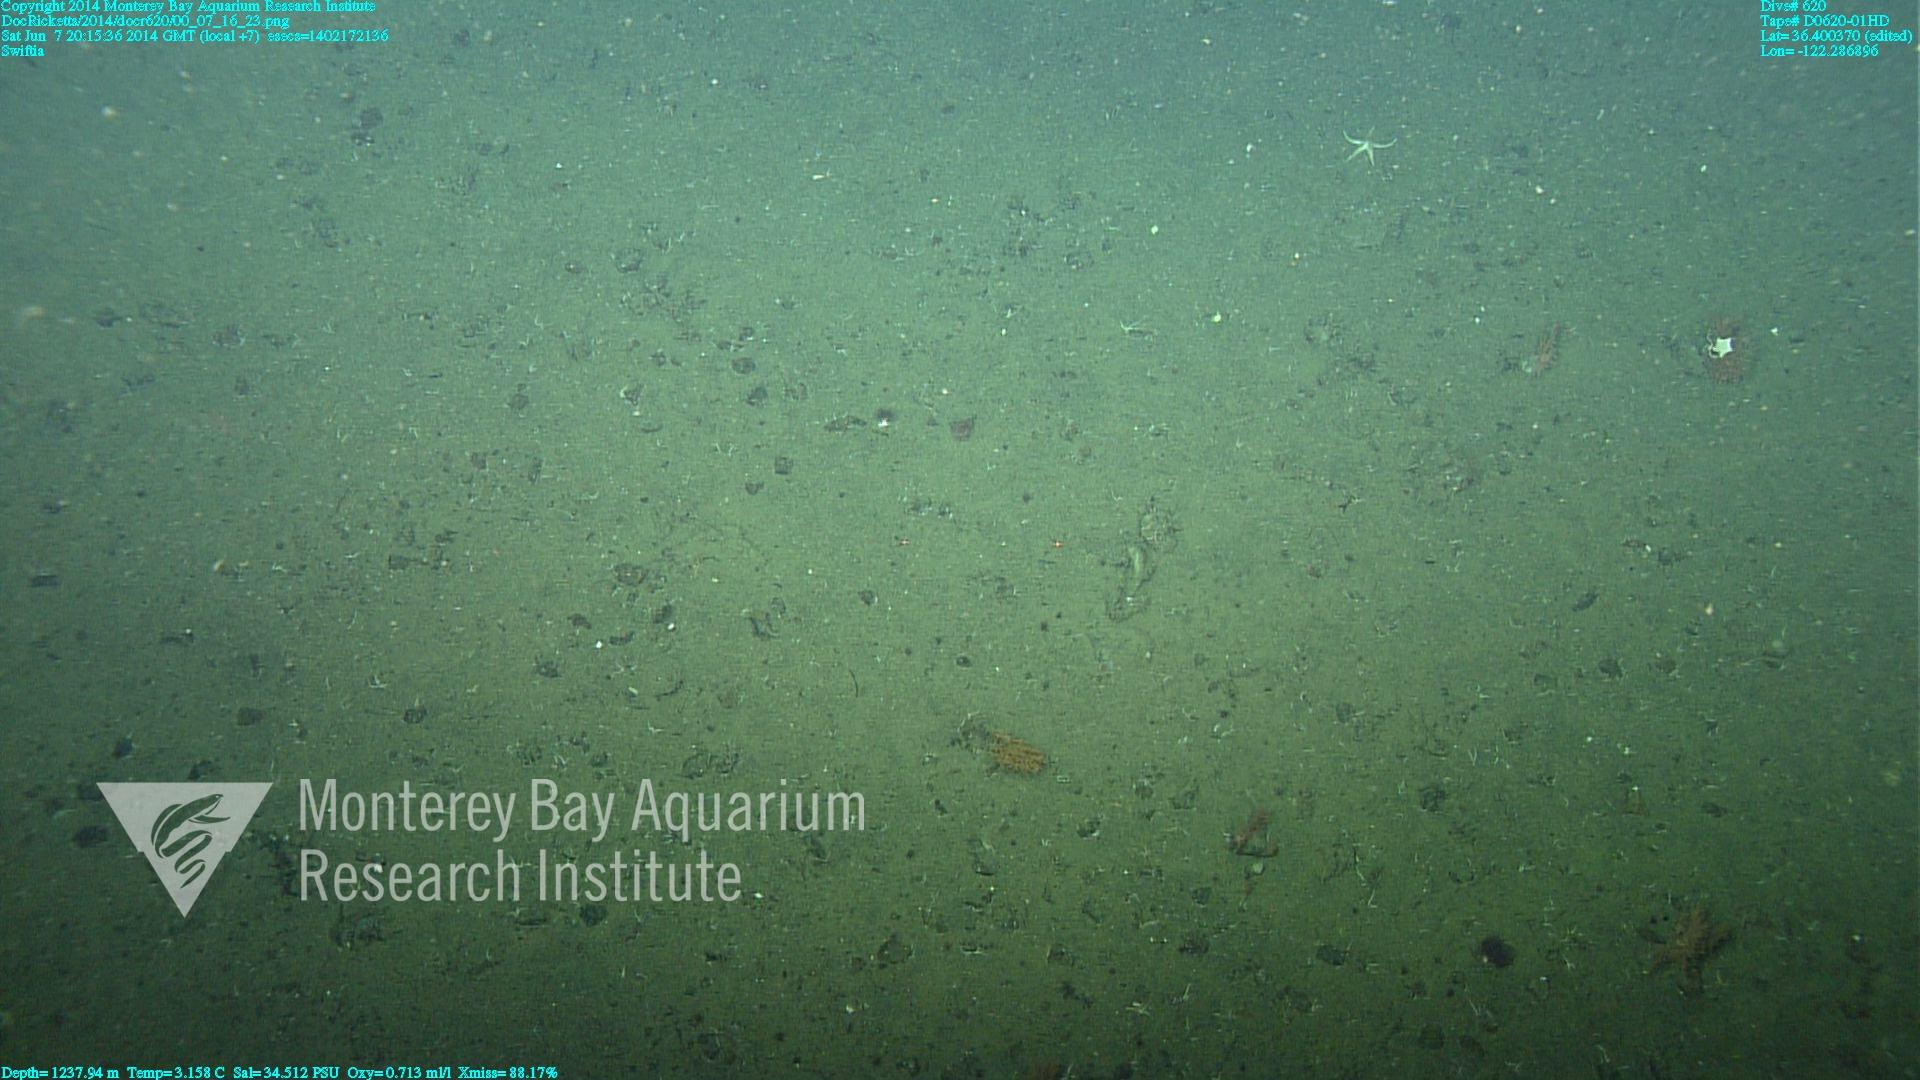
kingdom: Animalia
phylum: Cnidaria
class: Anthozoa
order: Malacalcyonacea
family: Plexauridae
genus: Swiftia
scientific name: Swiftia
